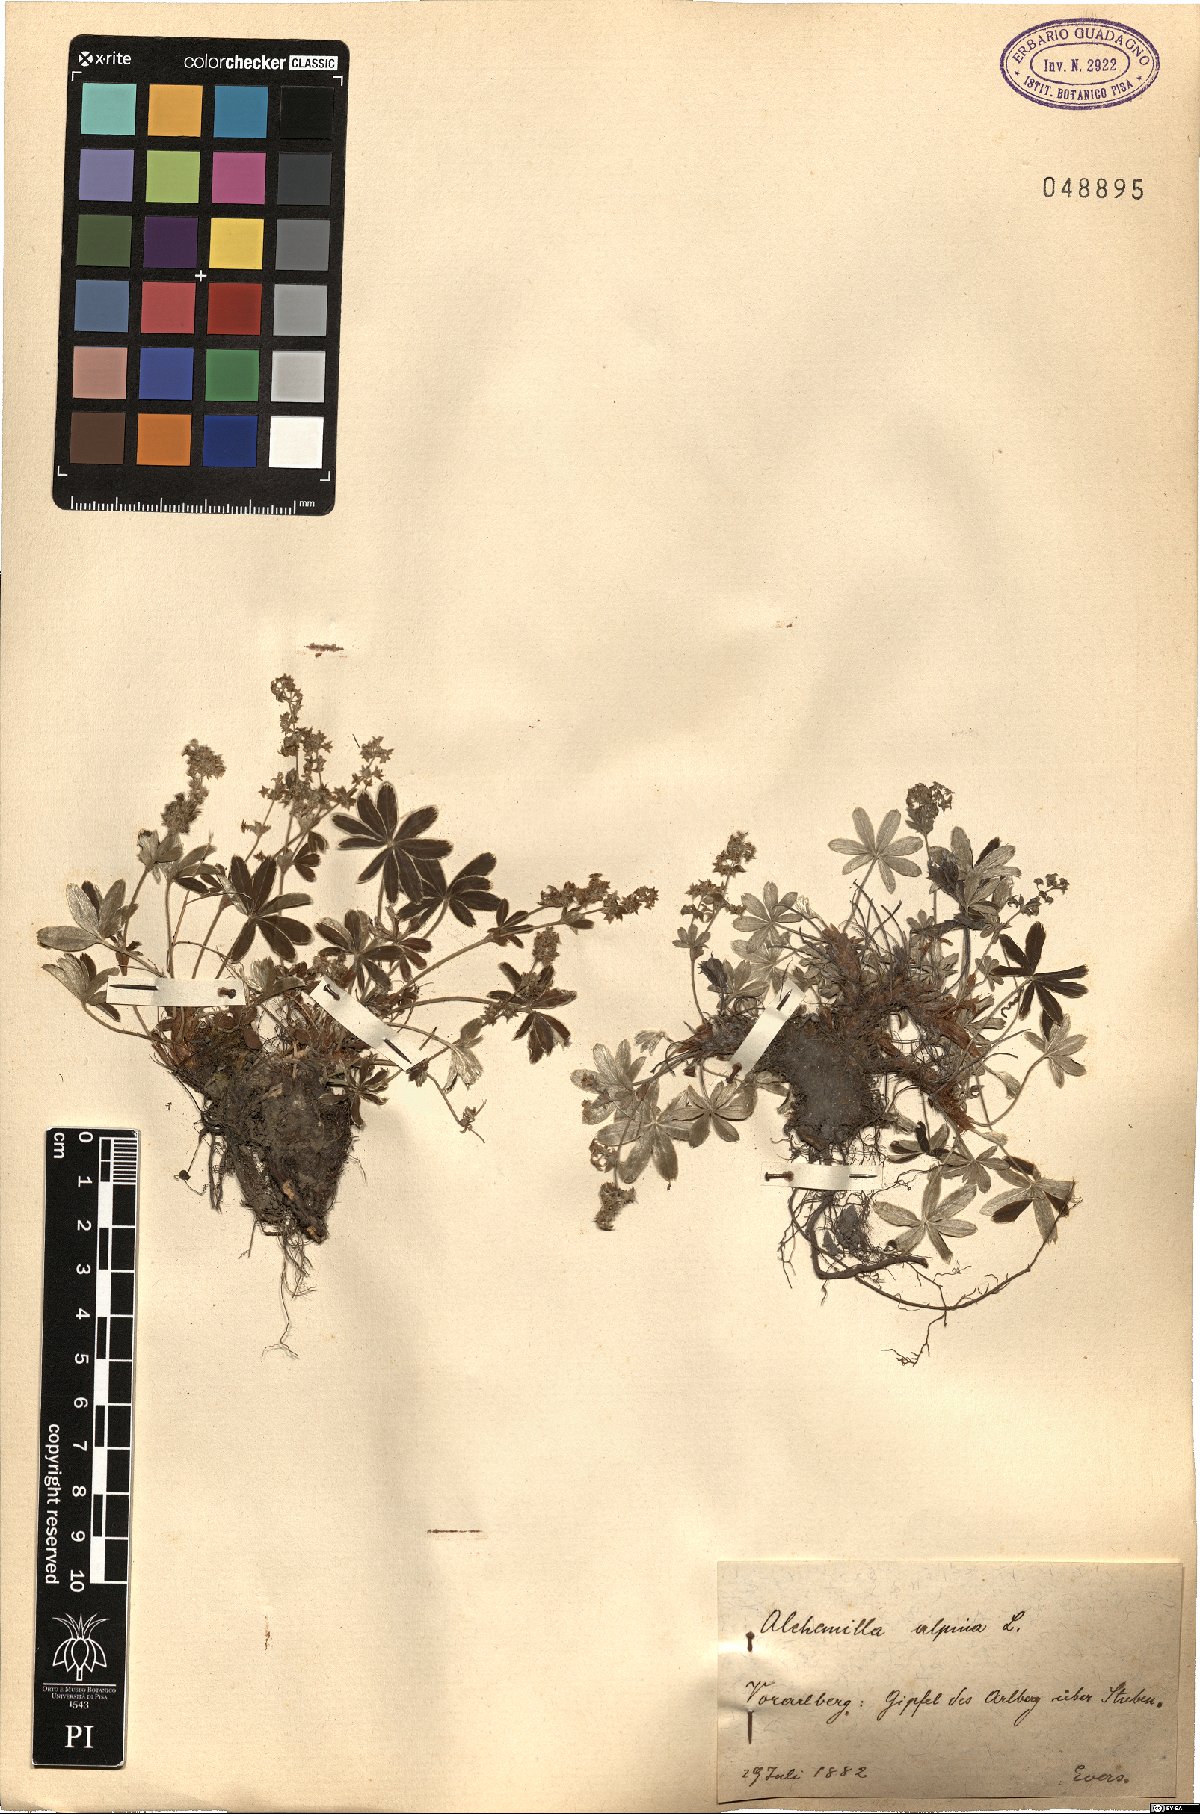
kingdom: Plantae
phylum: Tracheophyta
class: Magnoliopsida
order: Rosales
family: Rosaceae
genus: Alchemilla
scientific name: Alchemilla alpina
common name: Alpine lady's-mantle
